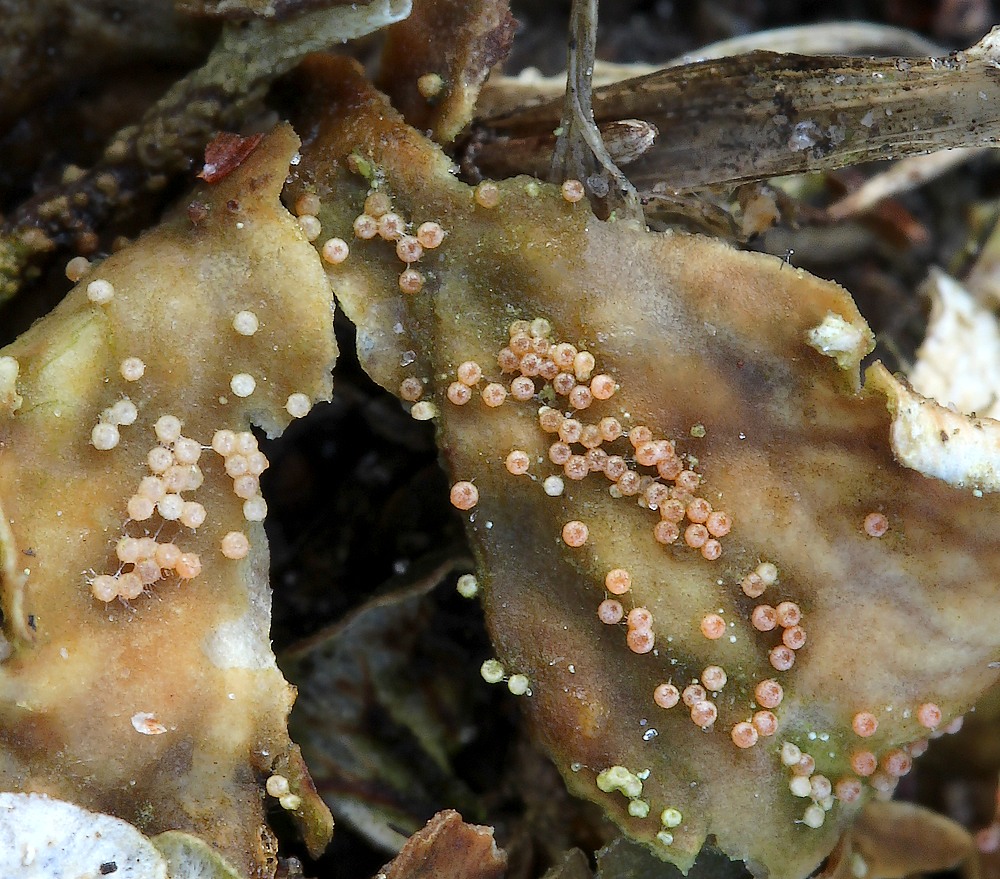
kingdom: Fungi
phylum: Ascomycota
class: Sordariomycetes
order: Hypocreales
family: Bionectriaceae
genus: Nectriopsis
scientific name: Nectriopsis lecanodes
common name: skjoldlav-gyldenkerne
